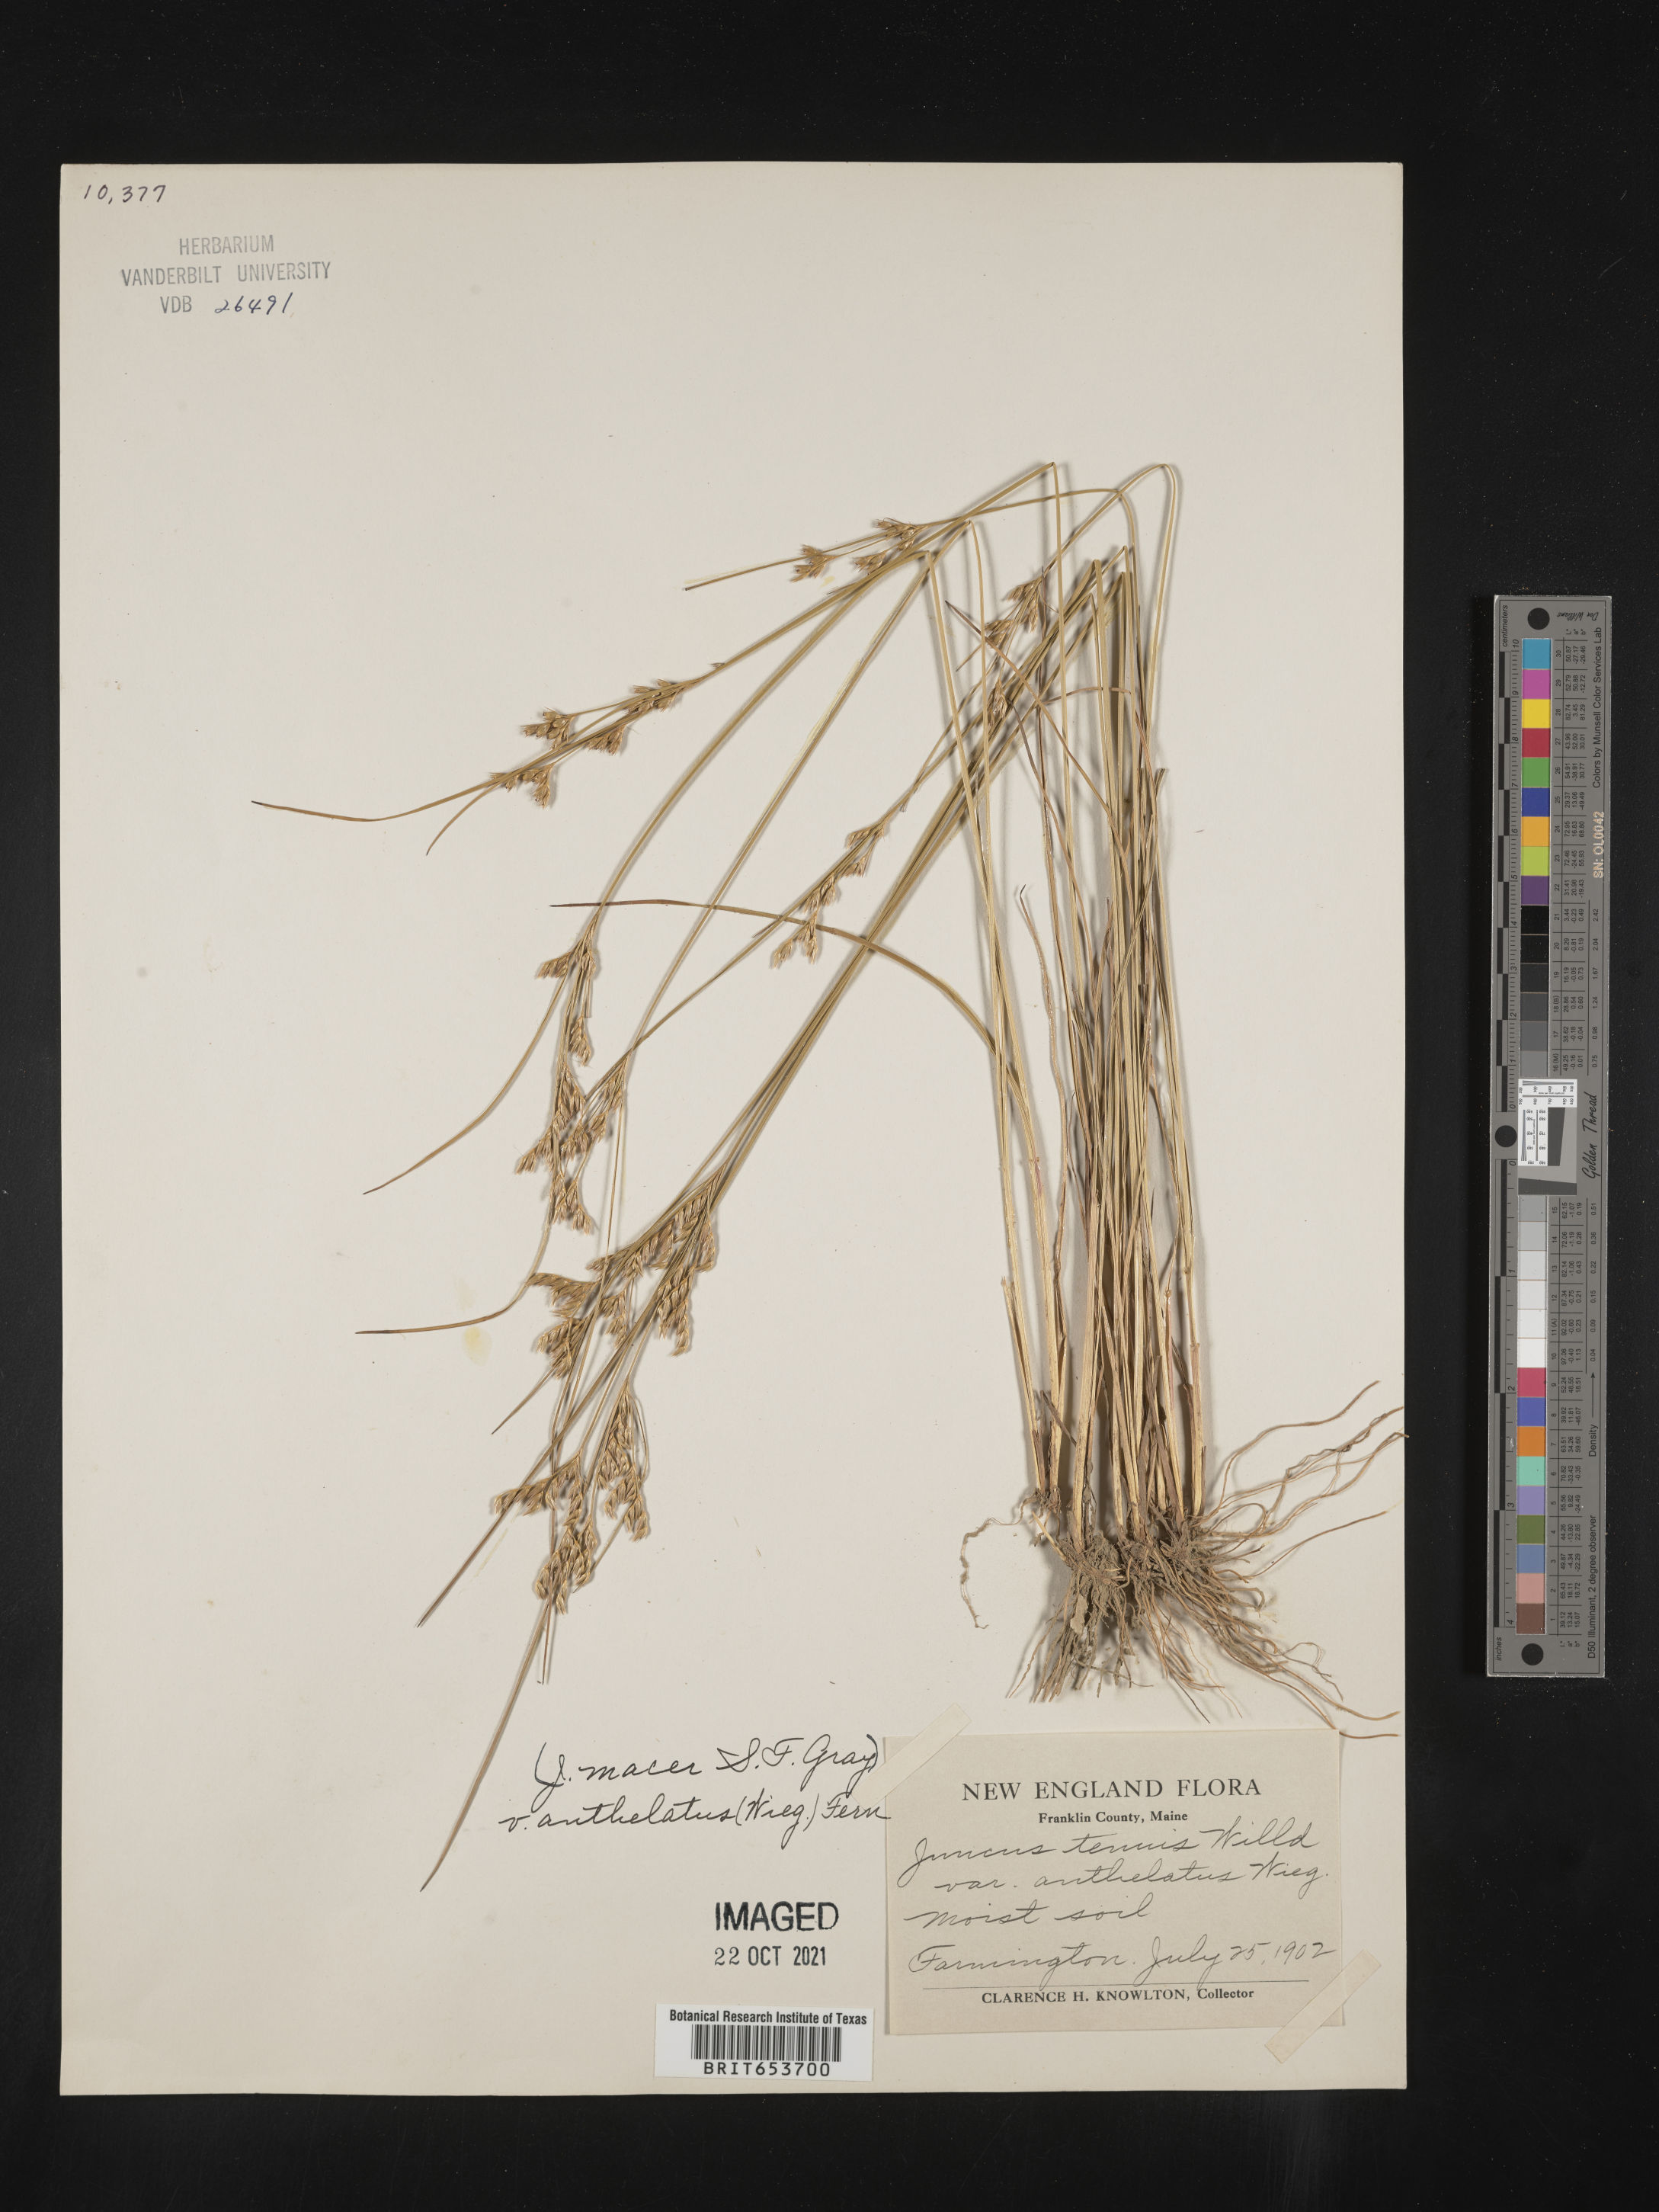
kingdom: Plantae
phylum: Tracheophyta
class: Liliopsida
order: Poales
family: Juncaceae
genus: Juncus
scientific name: Juncus tenuis
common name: Slender rush
